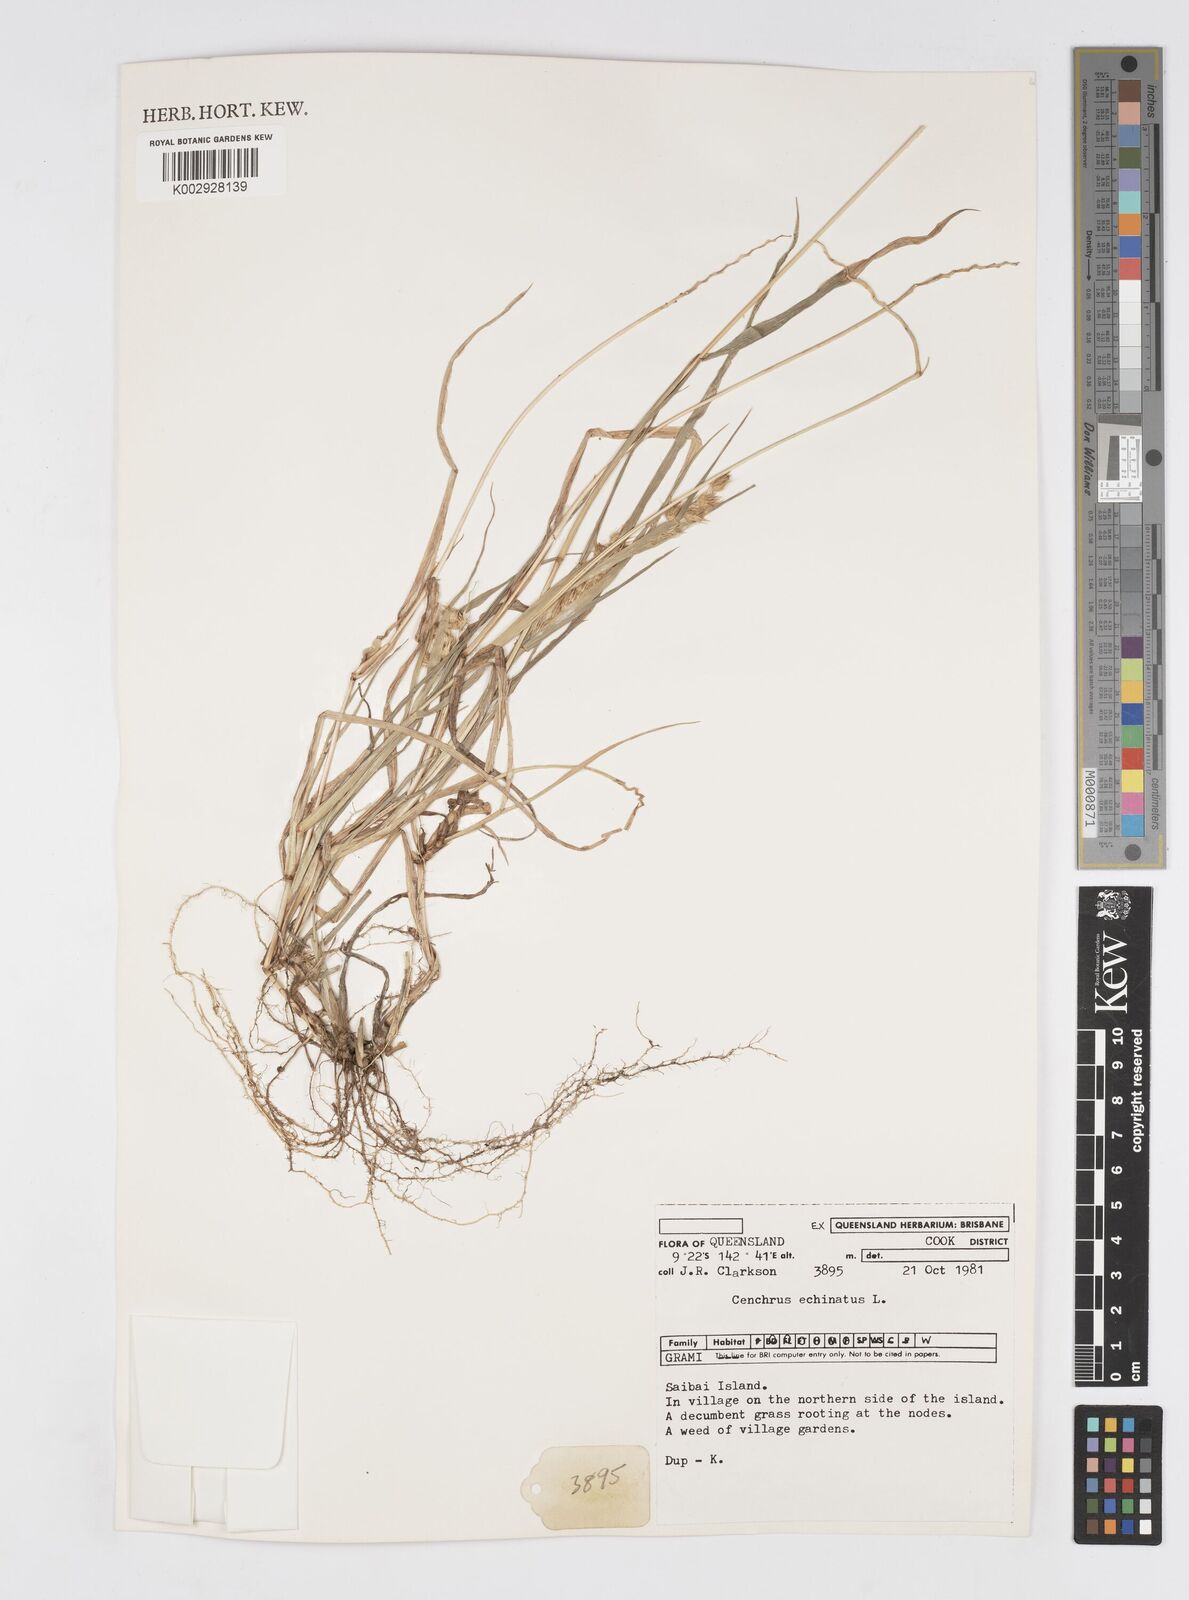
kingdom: Plantae
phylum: Tracheophyta
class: Liliopsida
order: Poales
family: Poaceae
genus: Cenchrus
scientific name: Cenchrus echinatus
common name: Southern sandbur
